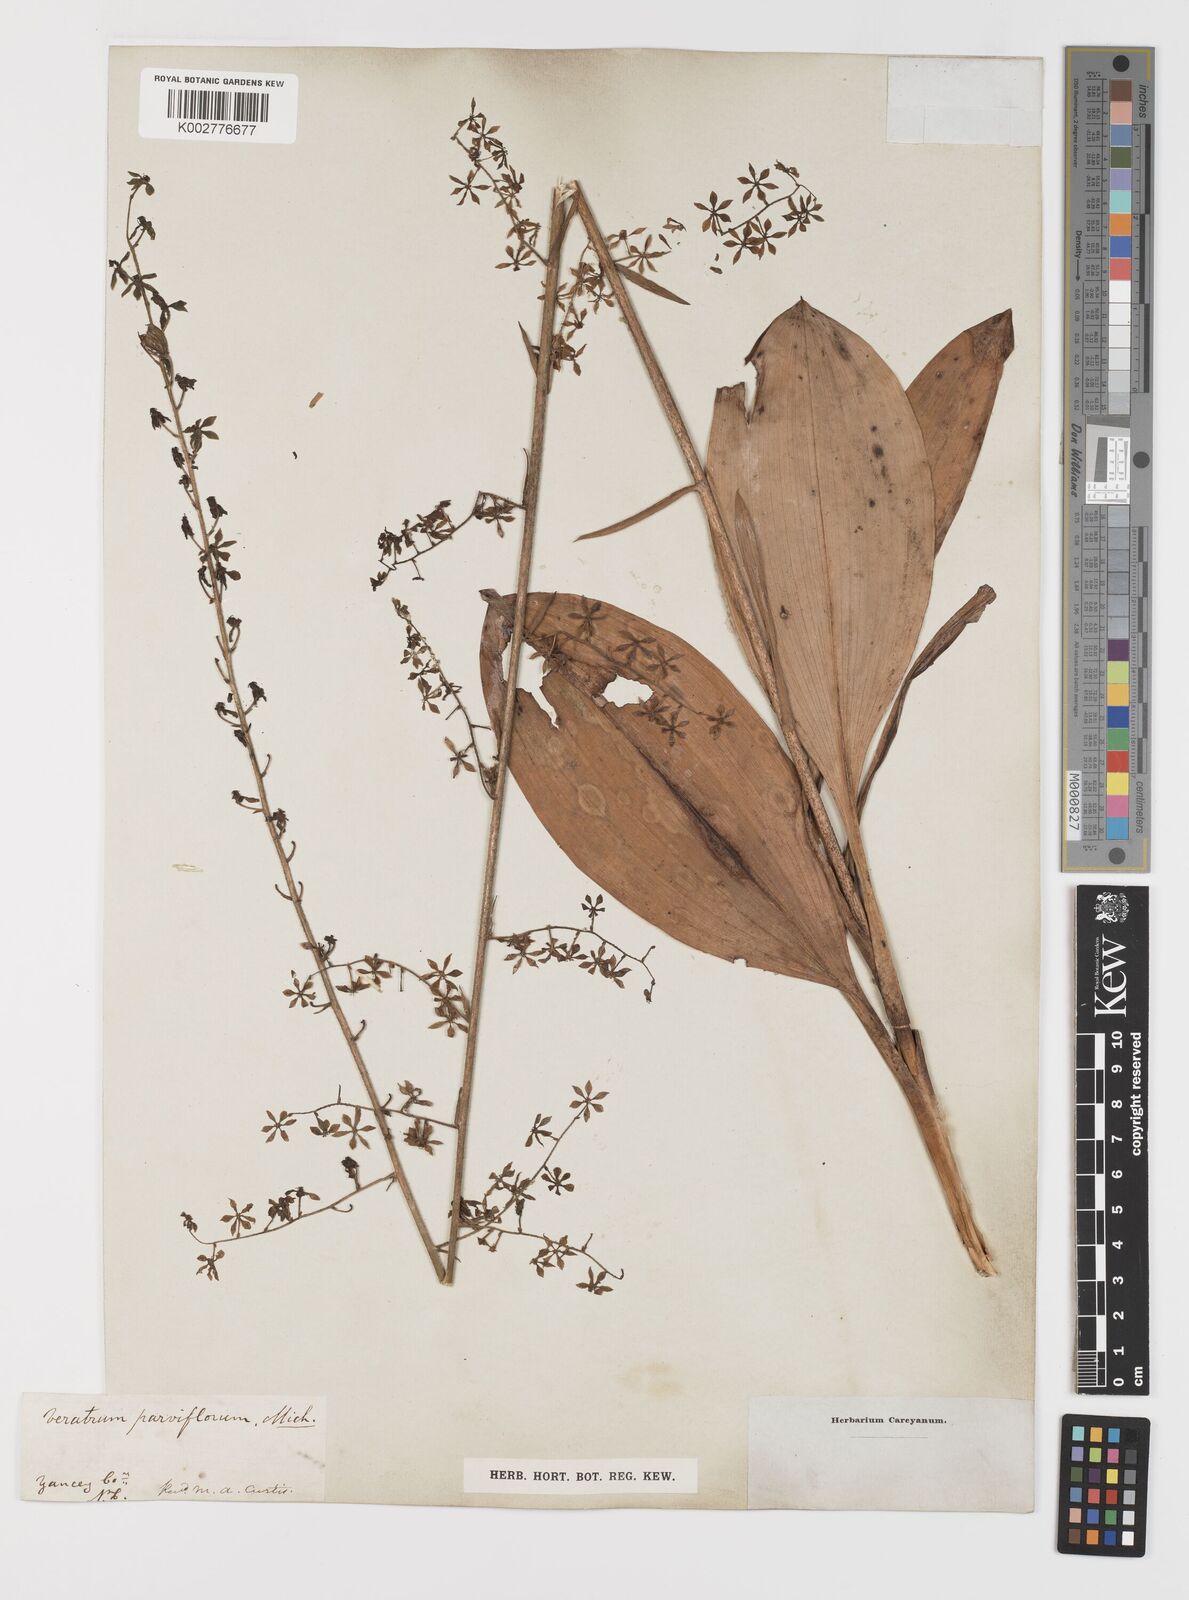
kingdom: Plantae
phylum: Tracheophyta
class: Liliopsida
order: Liliales
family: Melanthiaceae
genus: Melanthium
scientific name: Melanthium parviflorum
